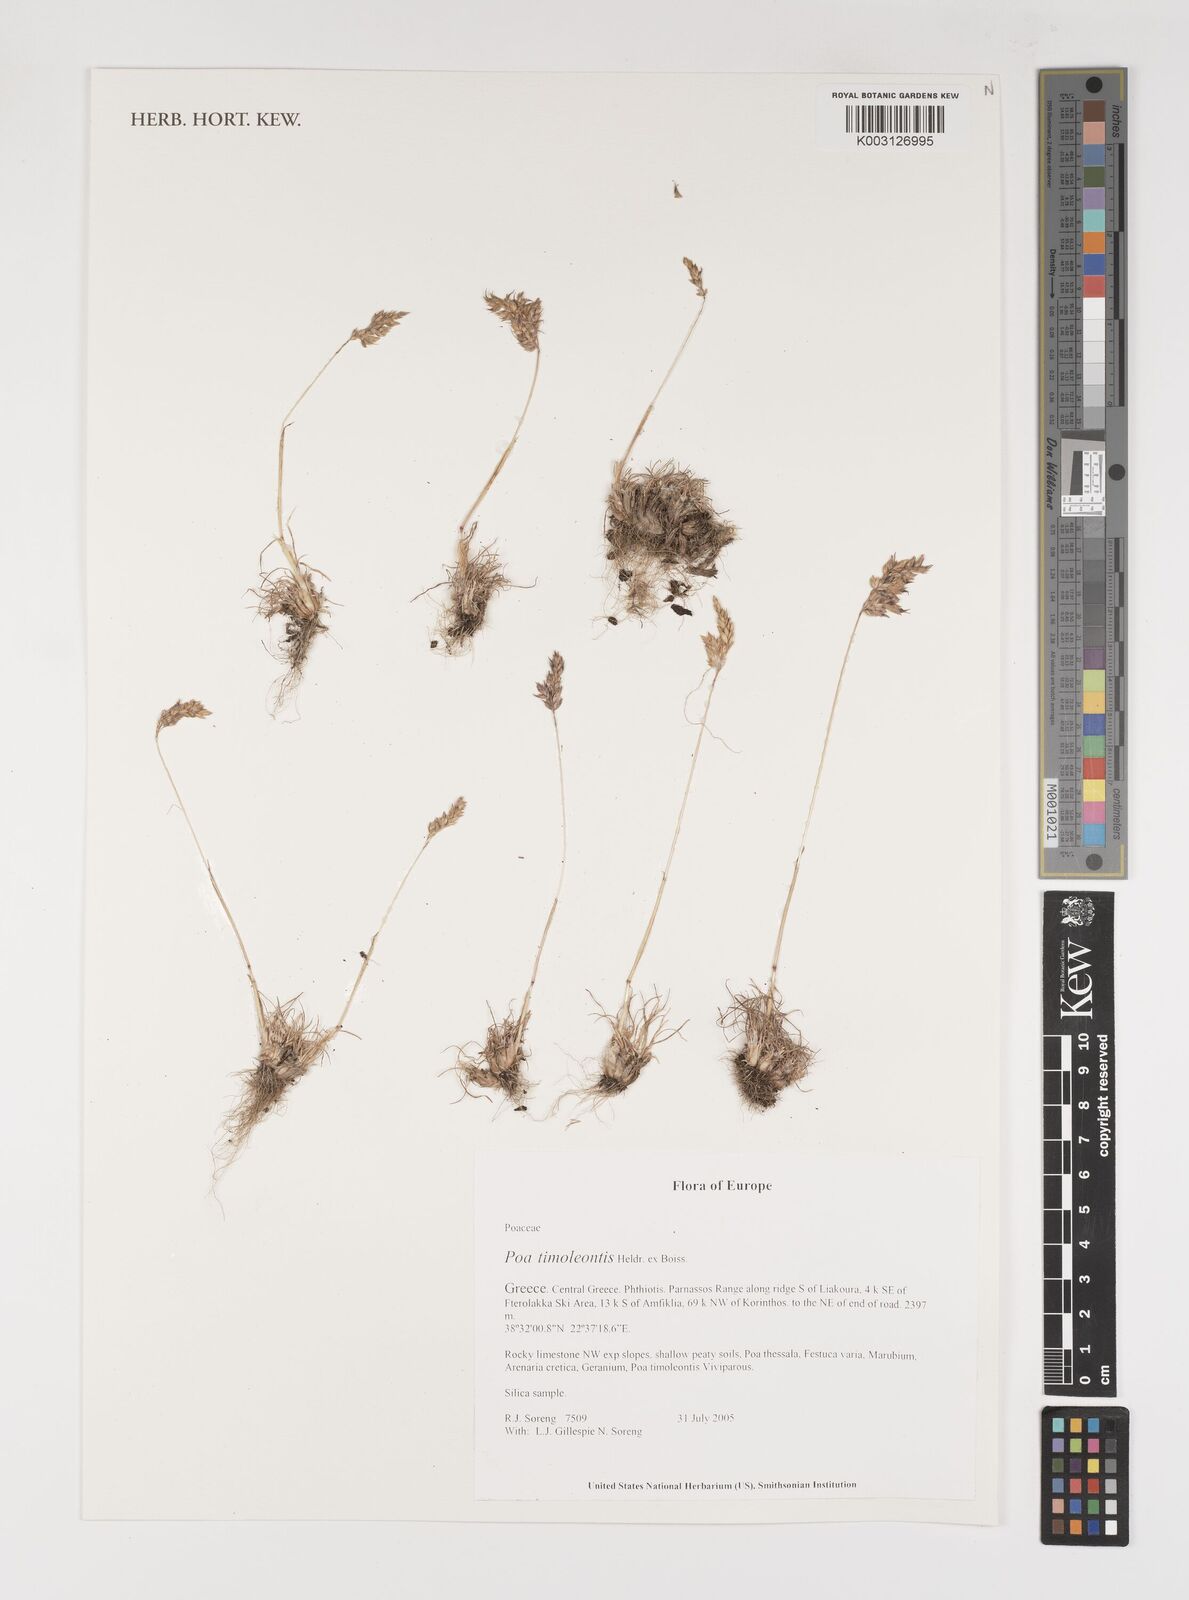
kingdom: Plantae
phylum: Tracheophyta
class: Liliopsida
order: Poales
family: Poaceae
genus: Poa
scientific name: Poa timoleontis
